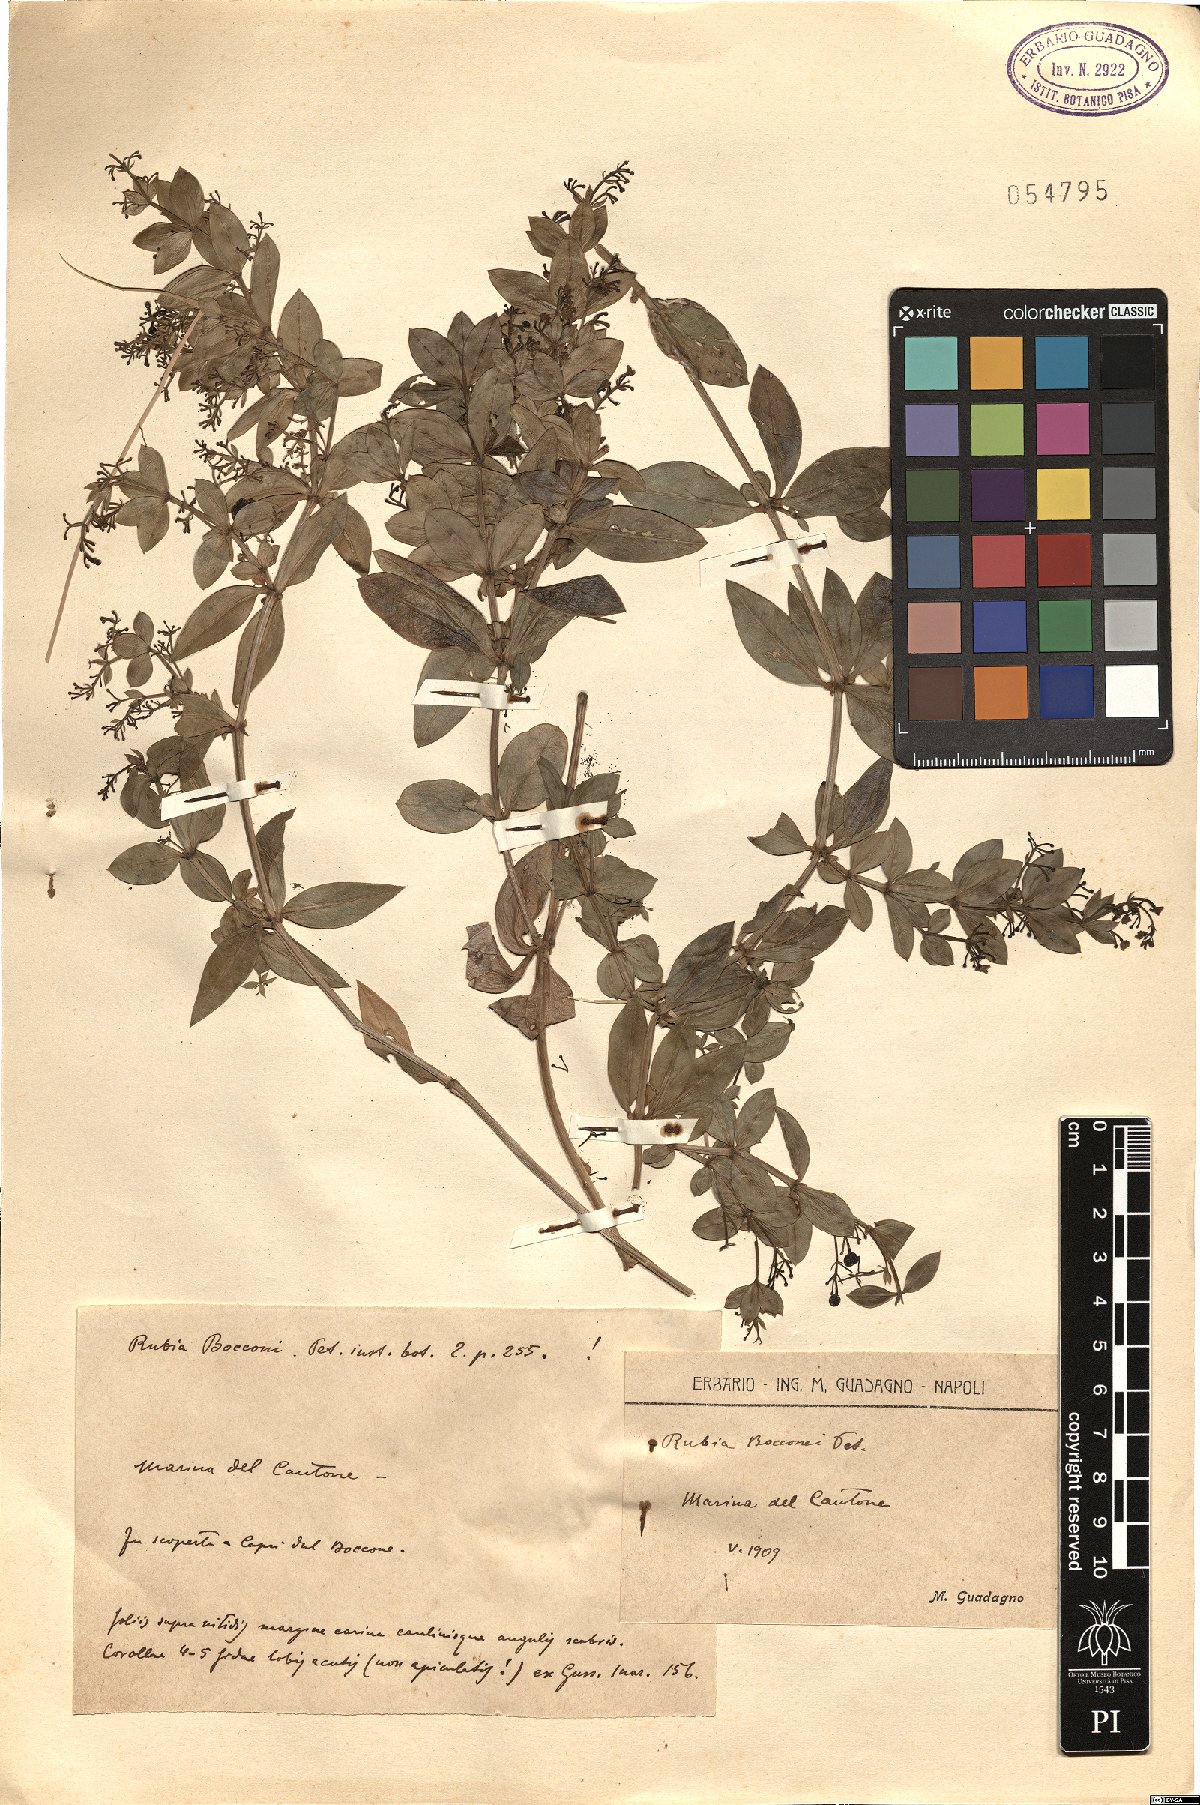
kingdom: Plantae
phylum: Tracheophyta
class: Magnoliopsida
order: Gentianales
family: Rubiaceae
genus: Rubia
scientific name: Rubia peregrina
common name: Wild madder
